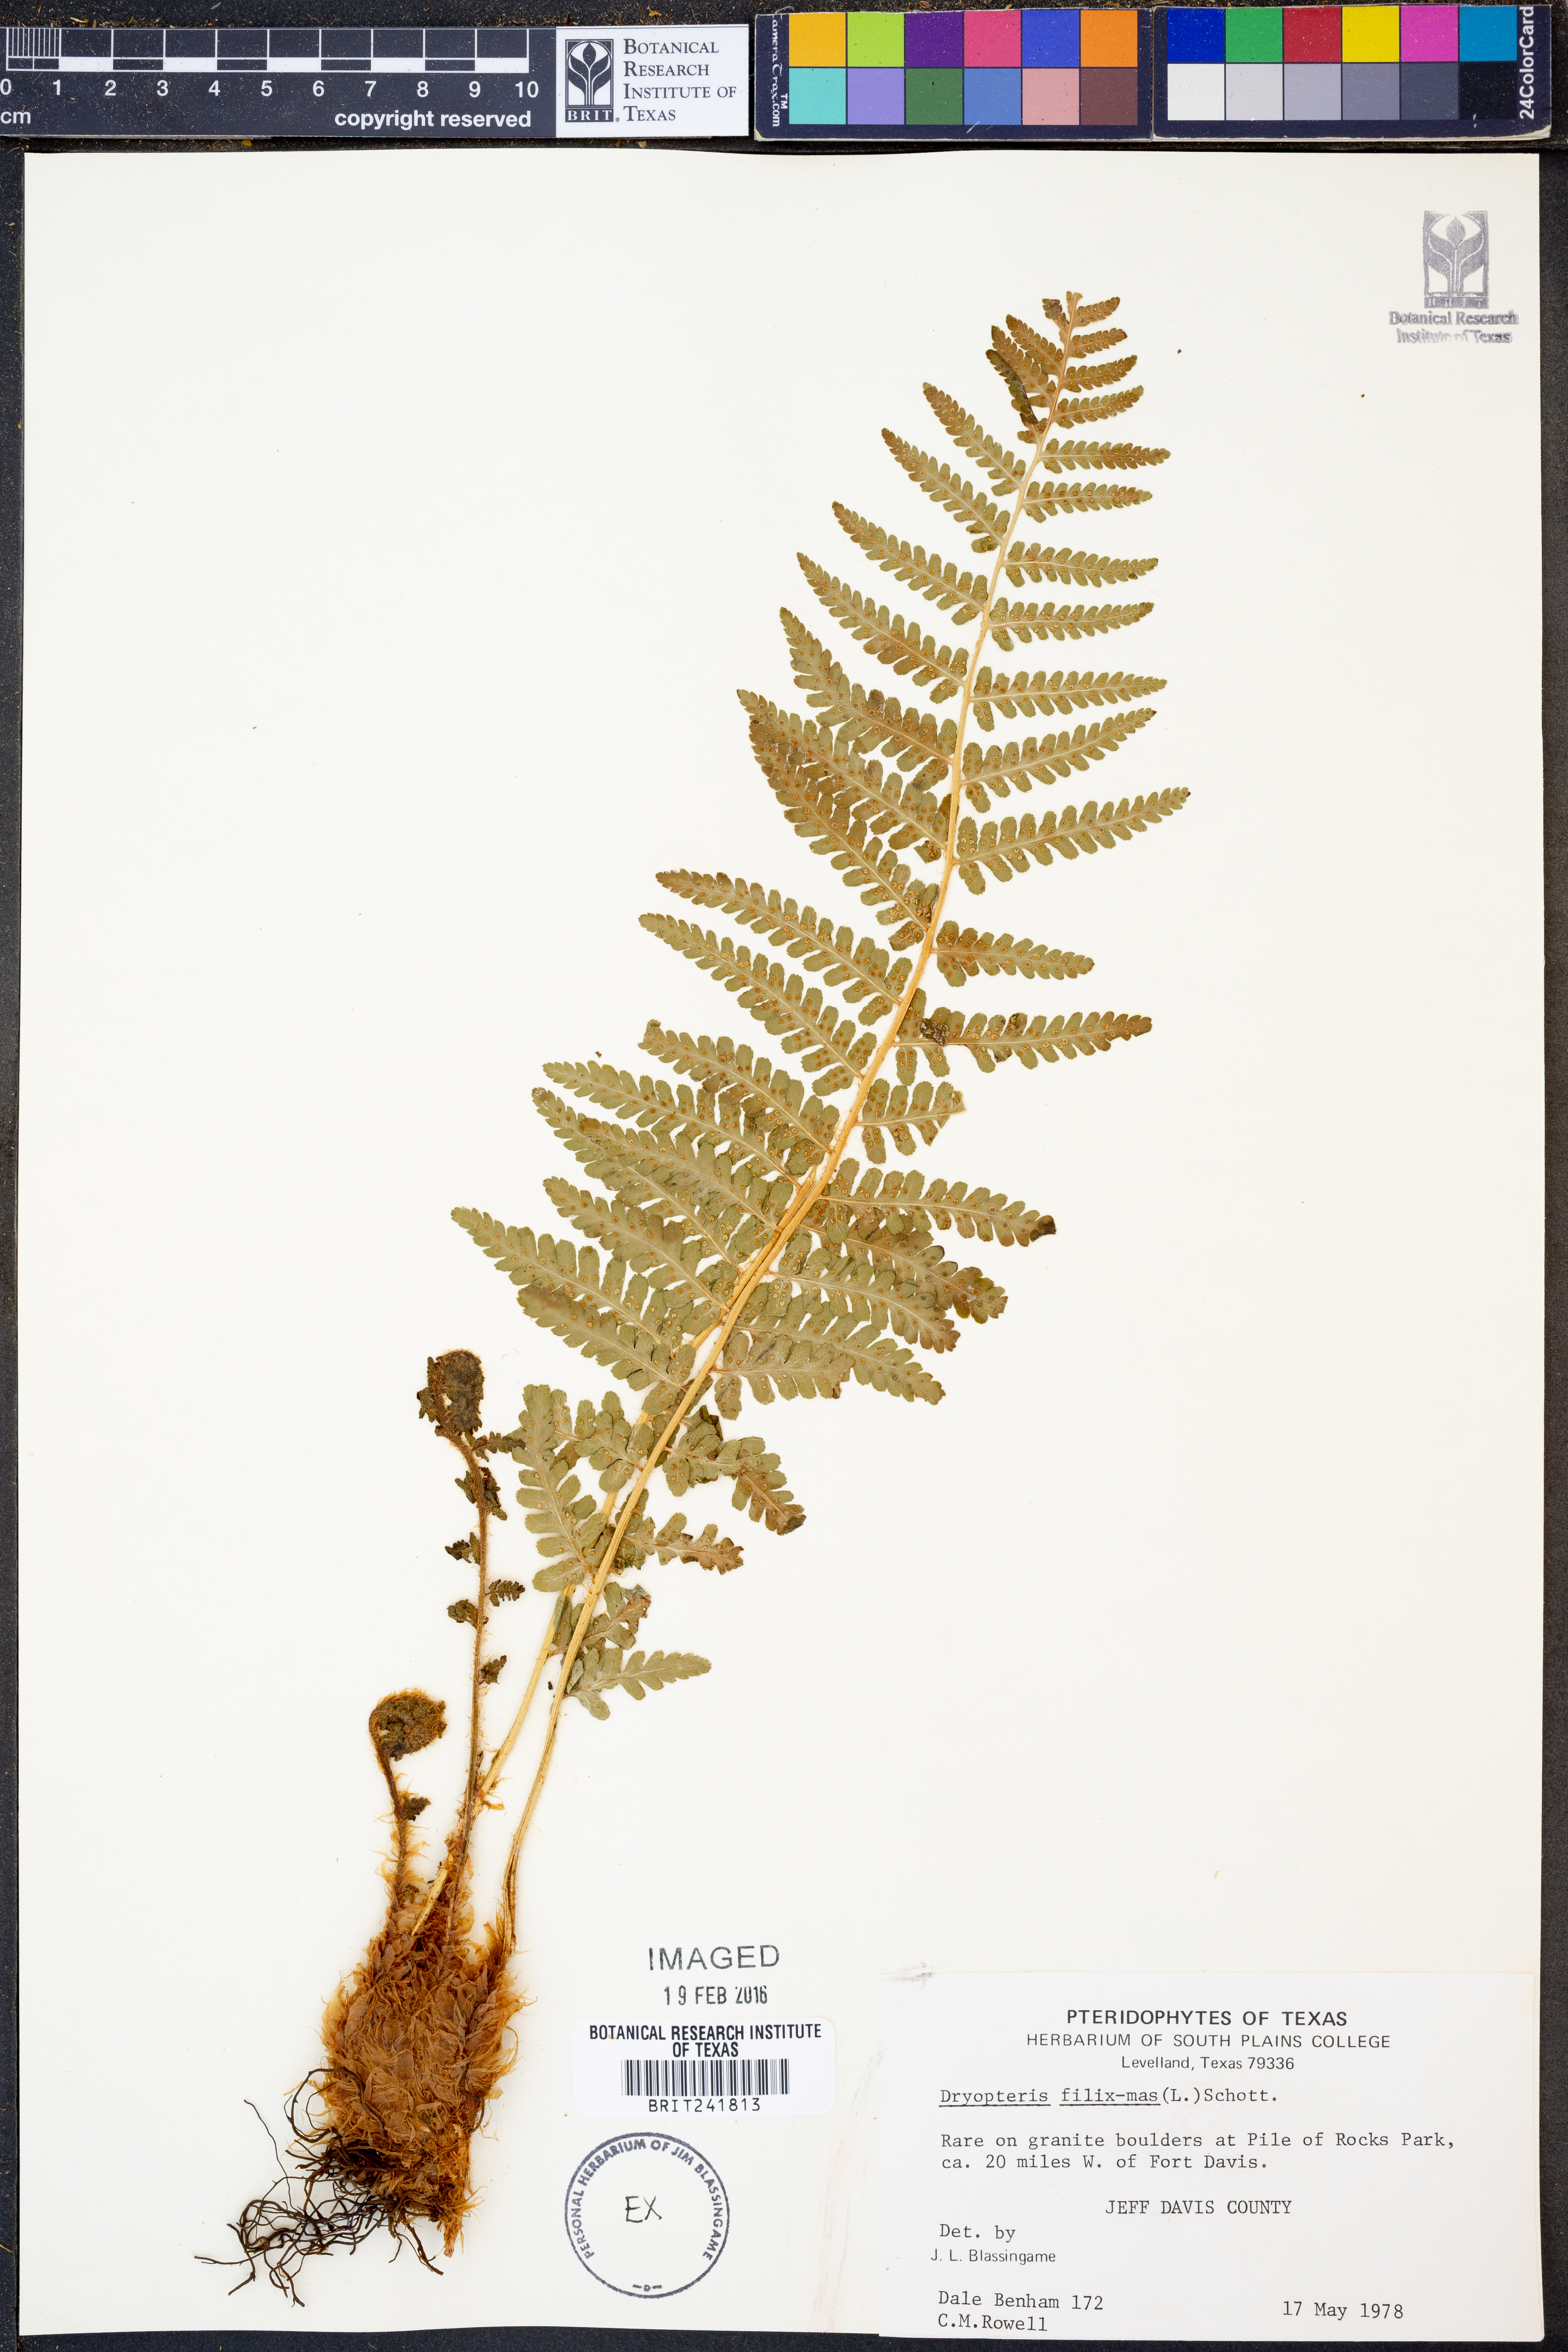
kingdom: Plantae
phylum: Tracheophyta
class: Polypodiopsida
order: Polypodiales
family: Dryopteridaceae
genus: Dryopteris
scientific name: Dryopteris filix-mas
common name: Male fern
